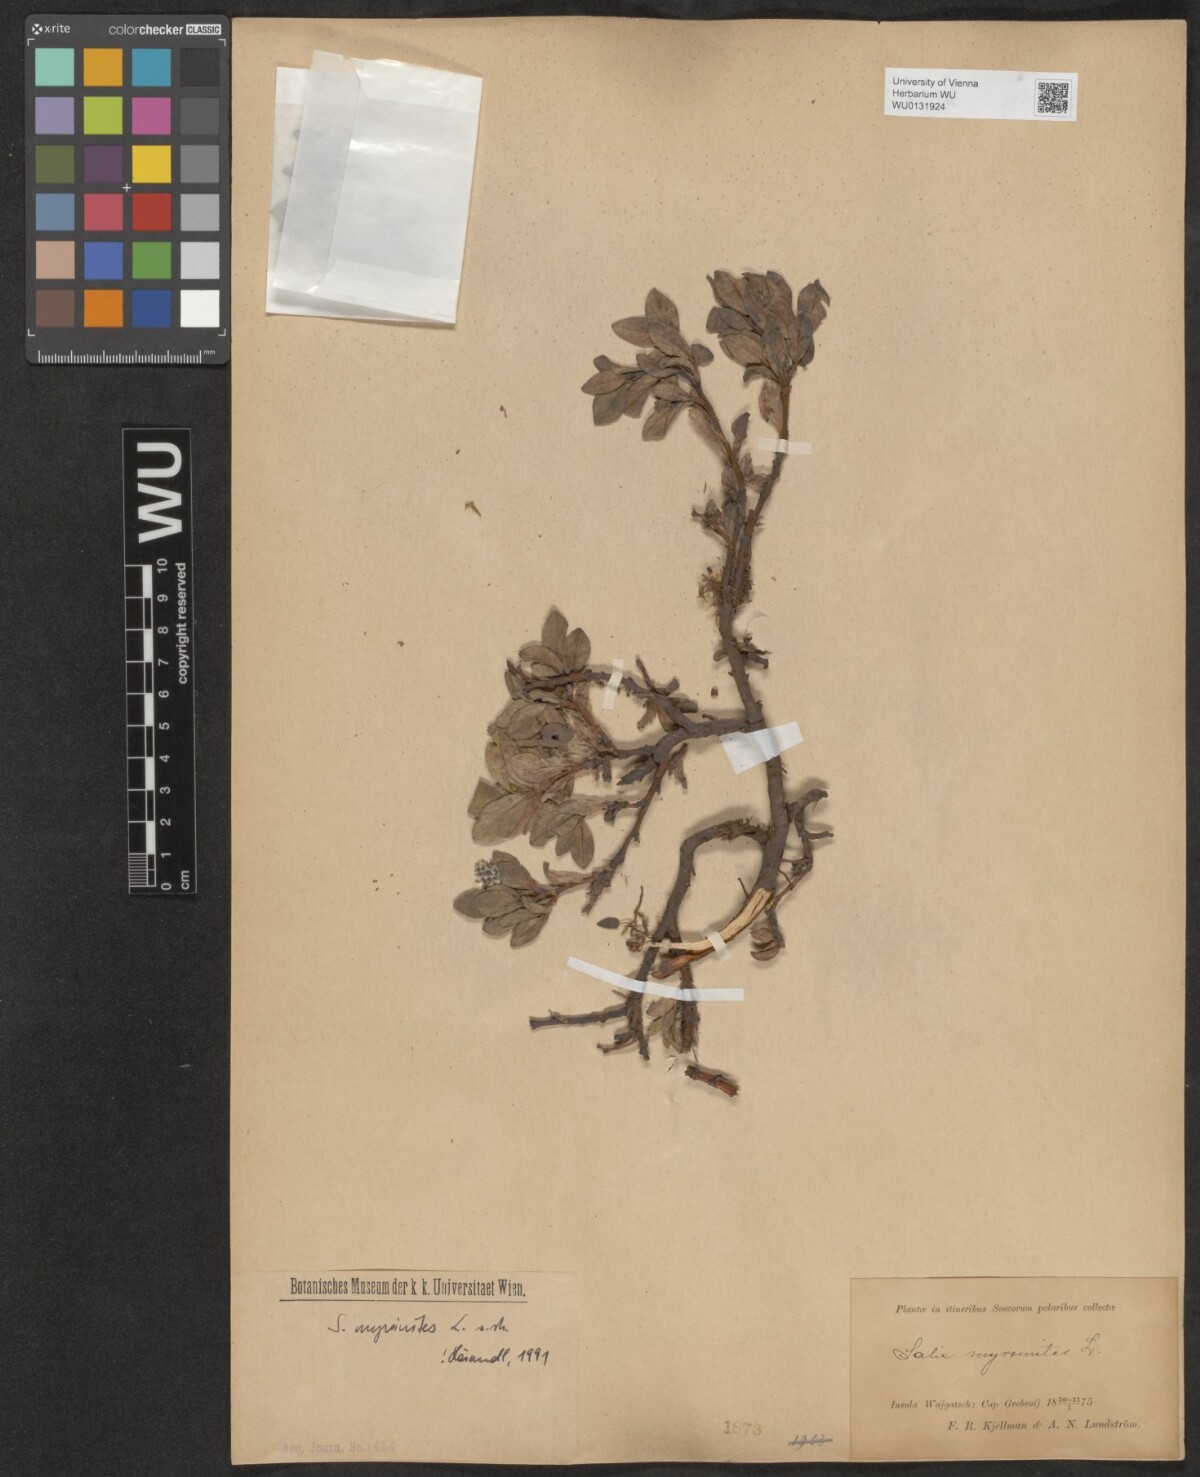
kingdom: Plantae
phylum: Tracheophyta
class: Magnoliopsida
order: Malpighiales
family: Salicaceae
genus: Salix
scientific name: Salix myrsinites
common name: Myrtle willow
